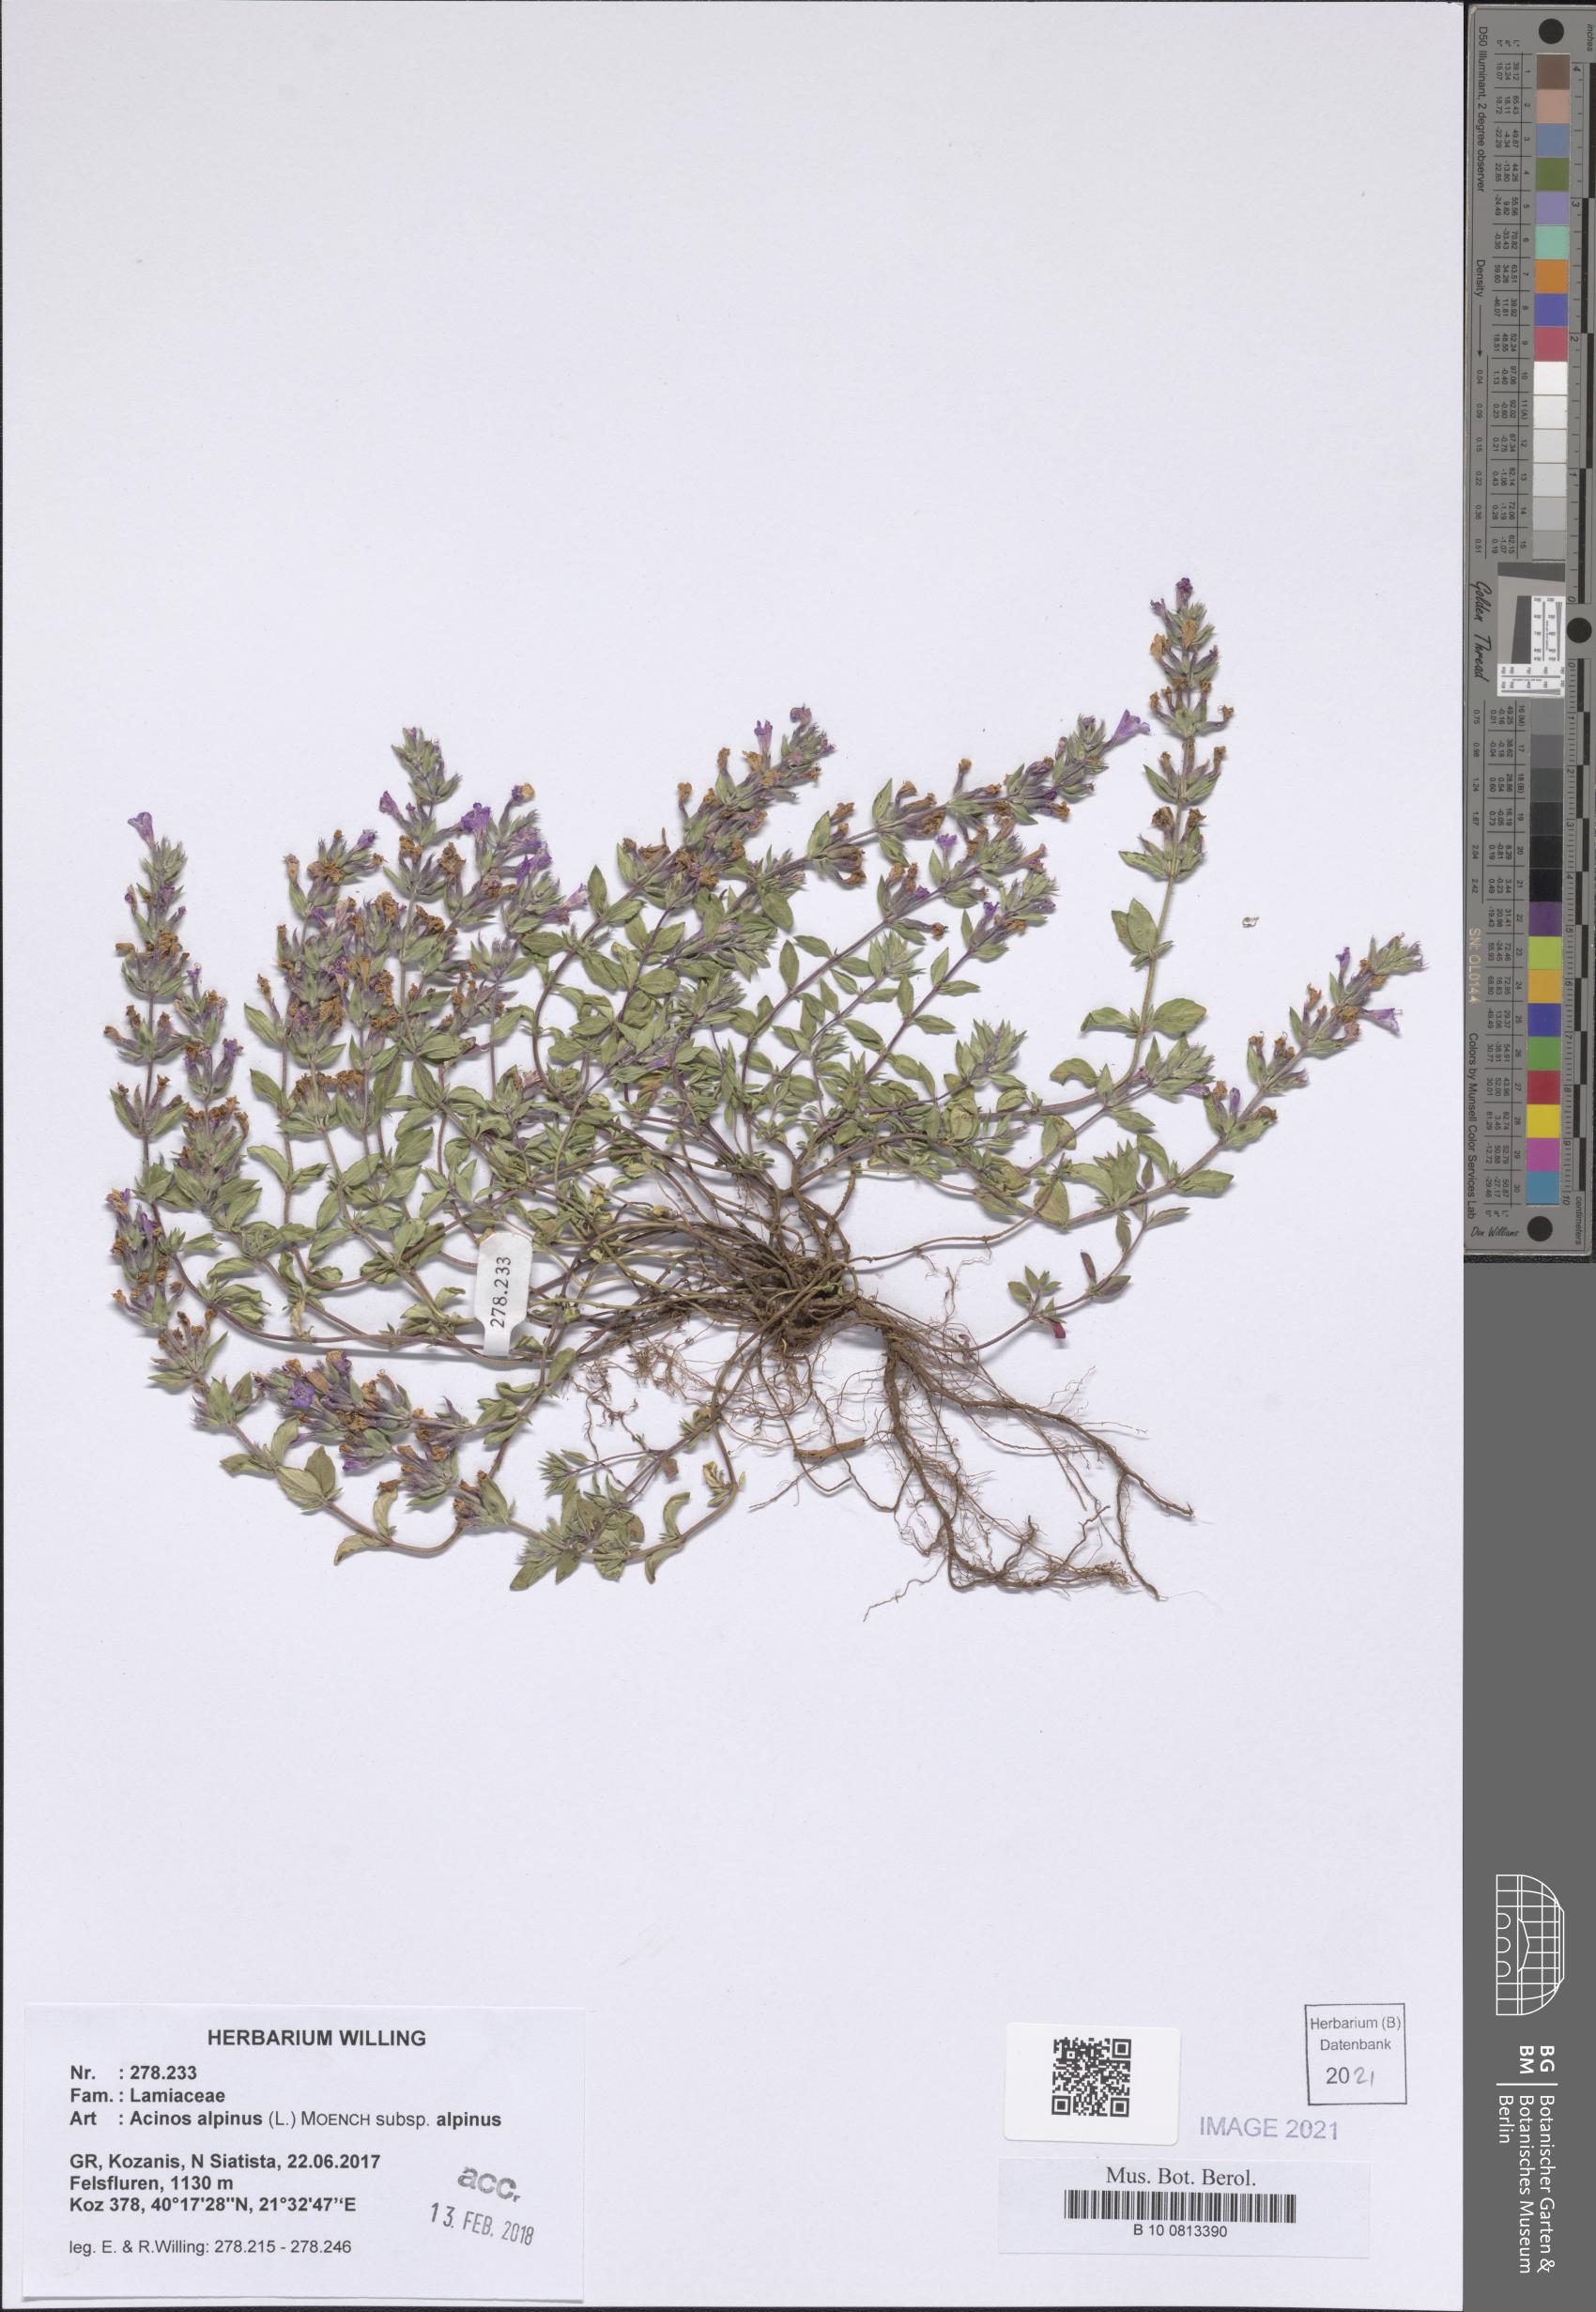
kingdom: Plantae
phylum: Tracheophyta
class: Magnoliopsida
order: Lamiales
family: Lamiaceae
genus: Clinopodium
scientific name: Clinopodium alpinum
